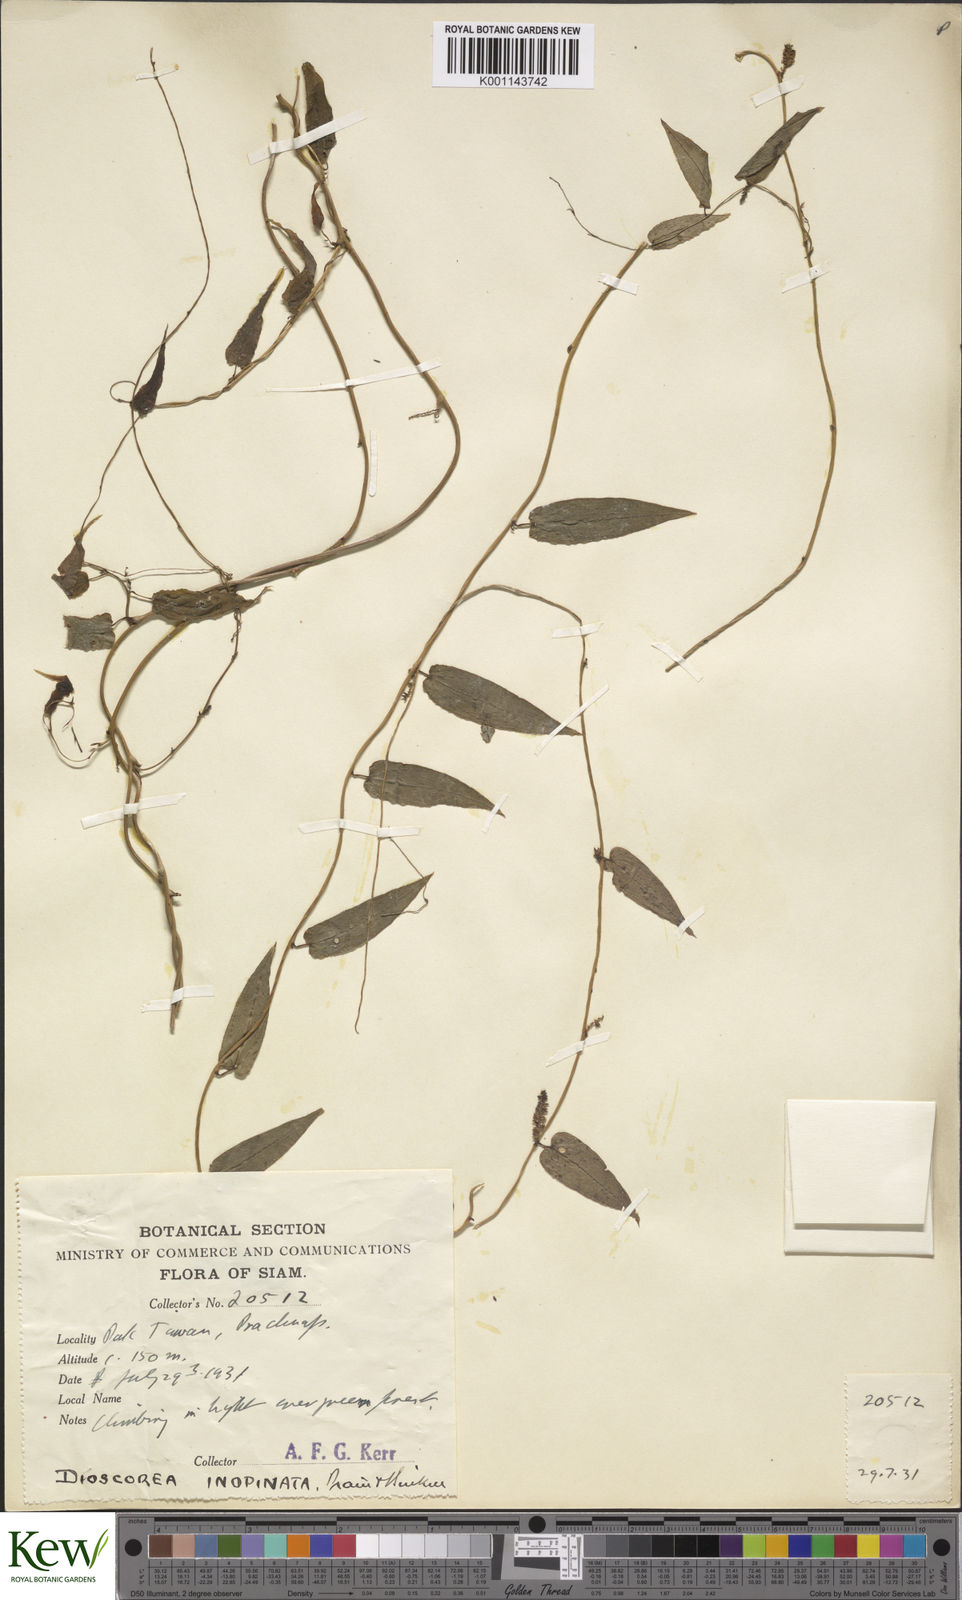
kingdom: Plantae
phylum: Tracheophyta
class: Liliopsida
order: Dioscoreales
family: Dioscoreaceae
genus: Dioscorea
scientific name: Dioscorea inopinata
